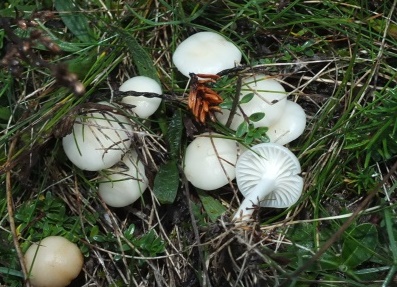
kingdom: Fungi
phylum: Basidiomycota
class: Agaricomycetes
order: Agaricales
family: Hygrophoraceae
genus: Cuphophyllus
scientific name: Cuphophyllus virgineus
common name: snehvid vokshat
